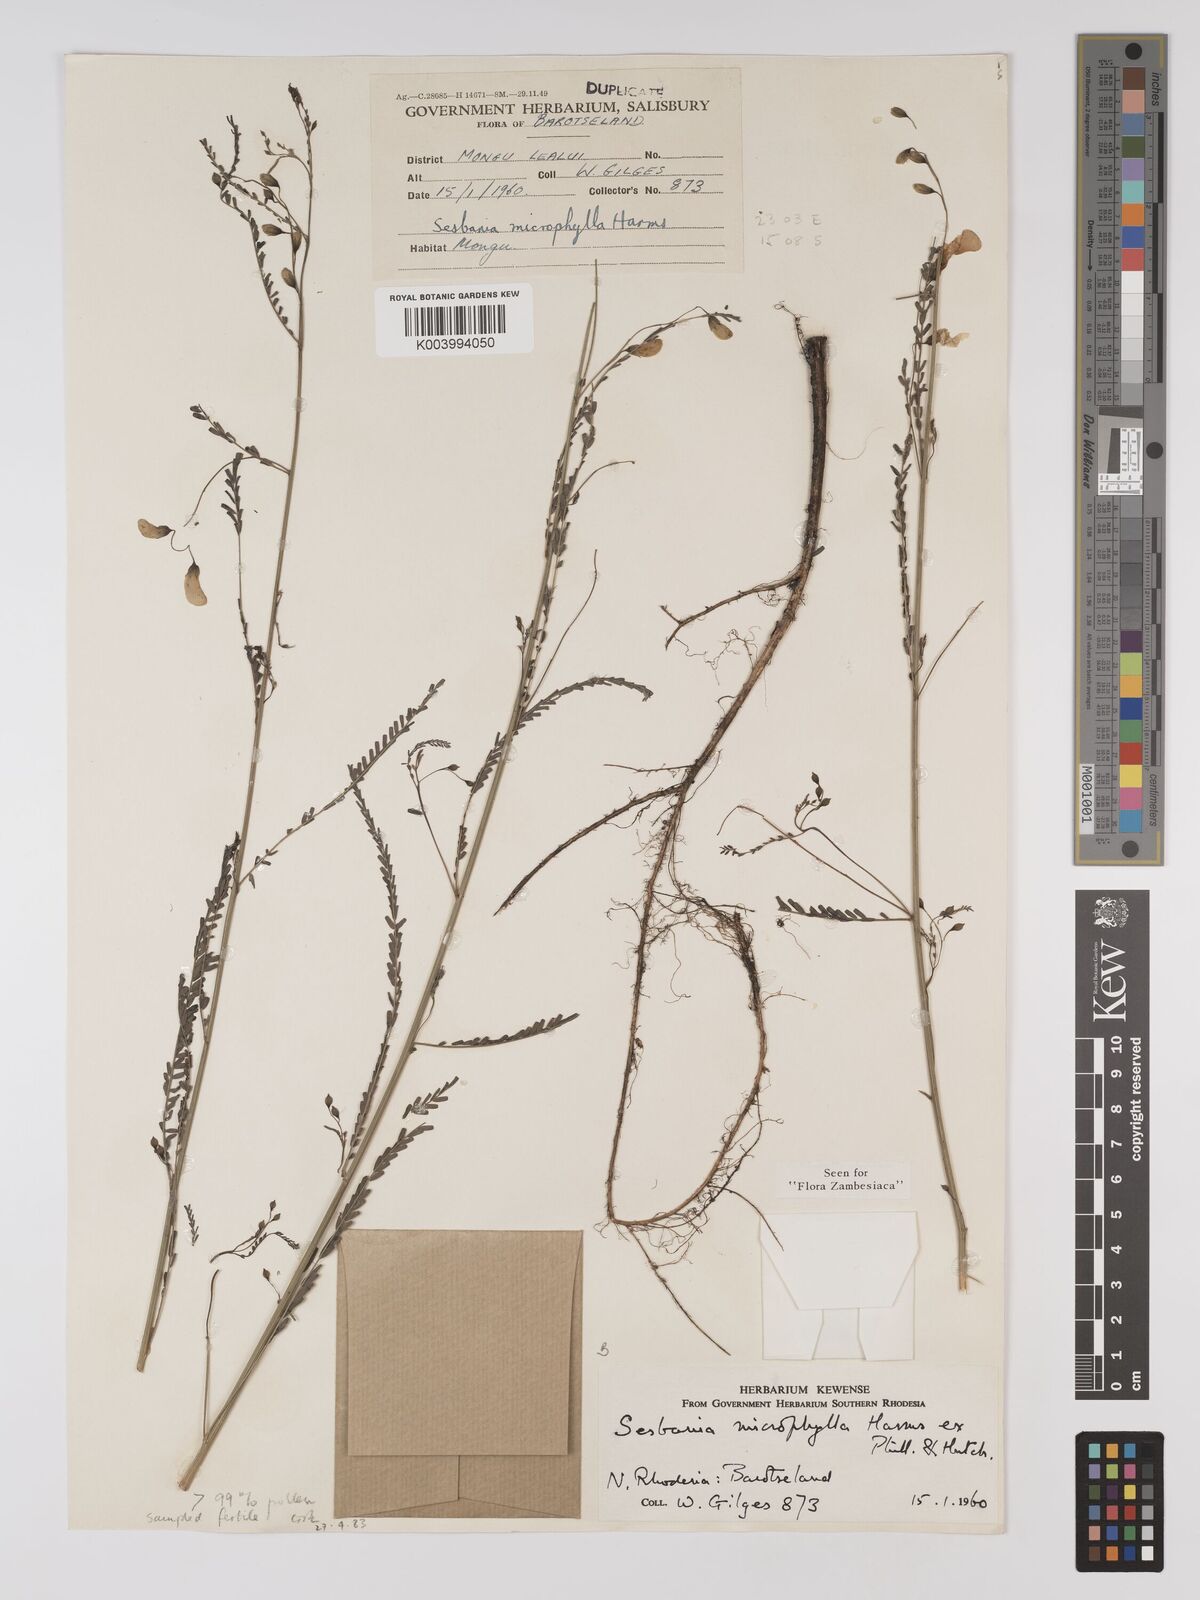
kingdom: Plantae
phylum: Tracheophyta
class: Magnoliopsida
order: Fabales
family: Fabaceae
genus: Sesbania
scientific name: Sesbania microphylla
